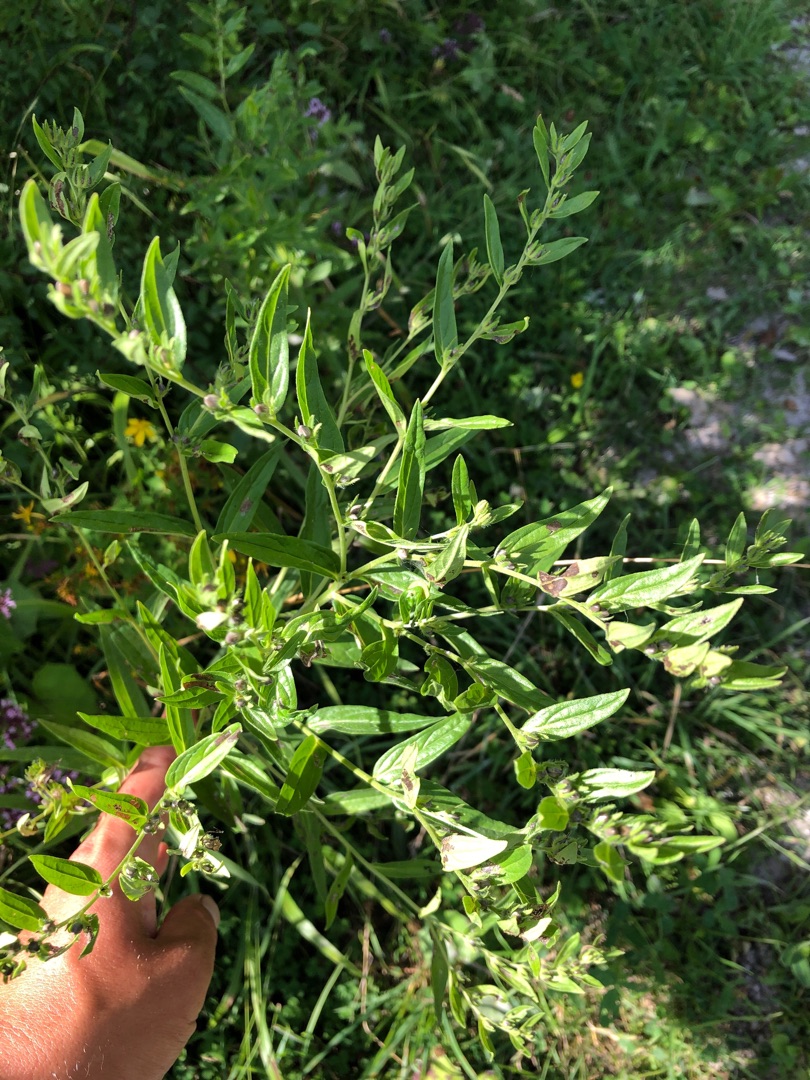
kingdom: Plantae
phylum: Tracheophyta
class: Magnoliopsida
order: Boraginales
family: Boraginaceae
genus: Lithospermum
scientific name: Lithospermum officinale
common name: Læge-stenfrø
